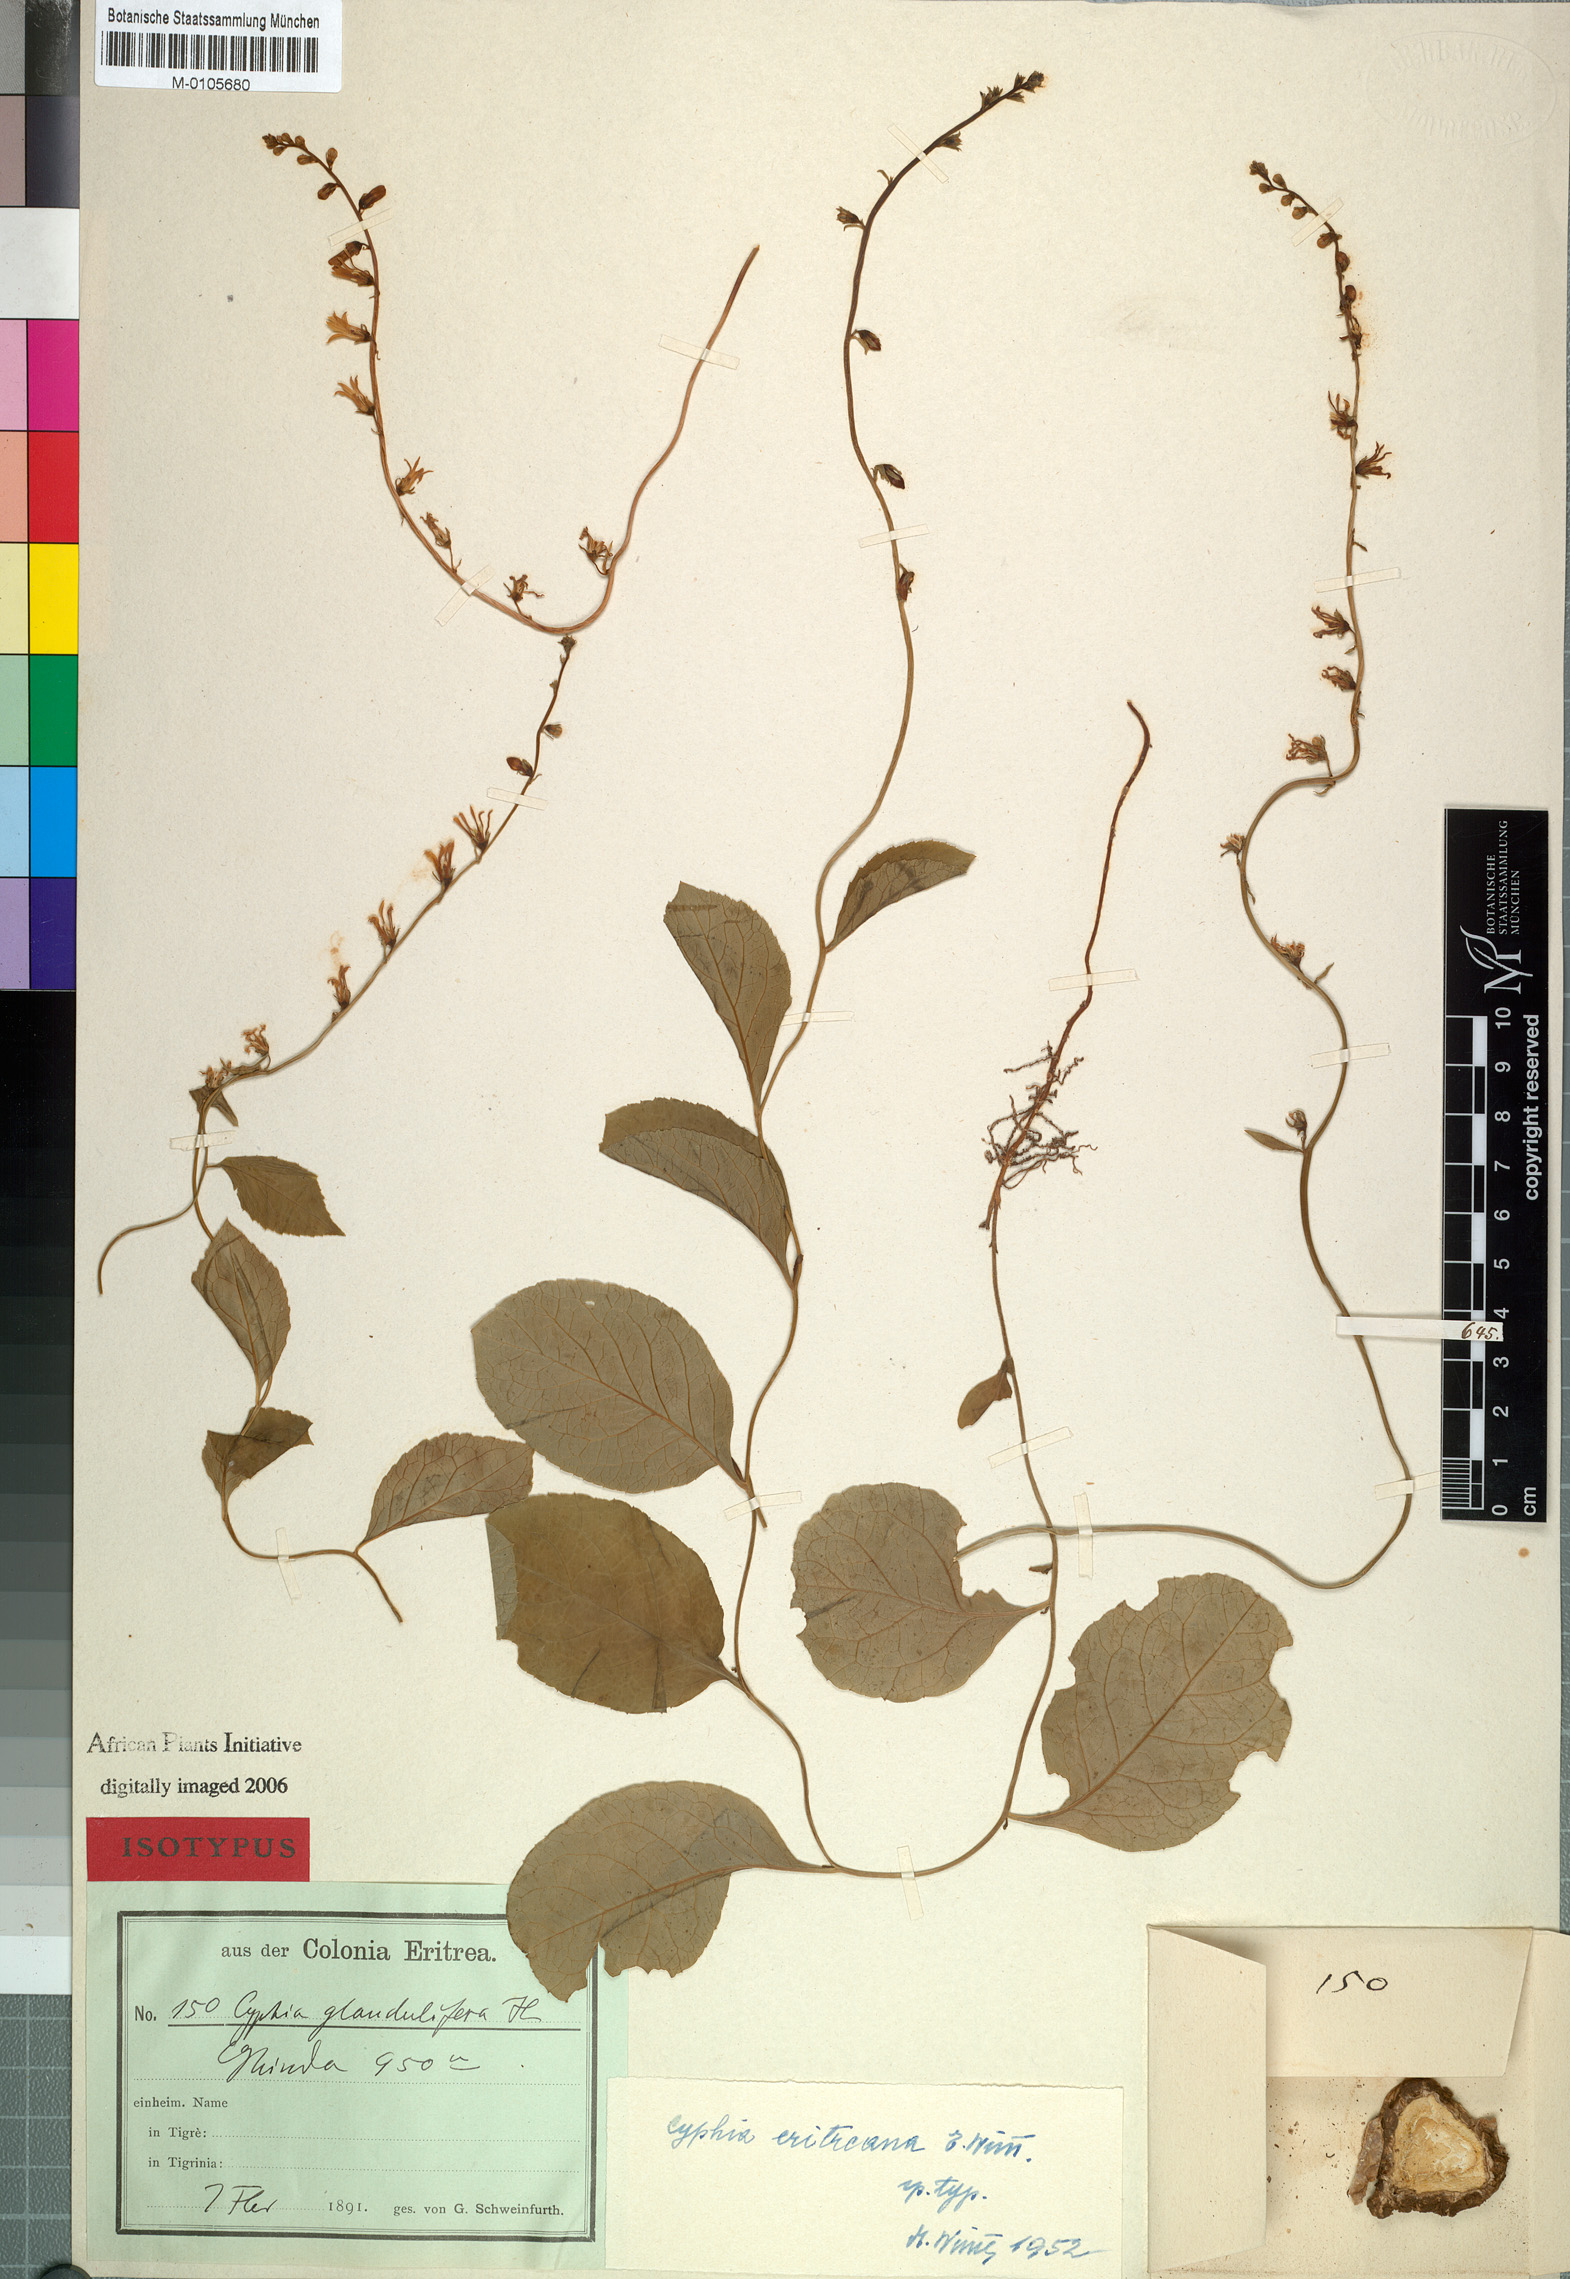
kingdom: Plantae
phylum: Tracheophyta
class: Magnoliopsida
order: Asterales
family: Campanulaceae
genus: Cyphia
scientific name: Cyphia eritreana
